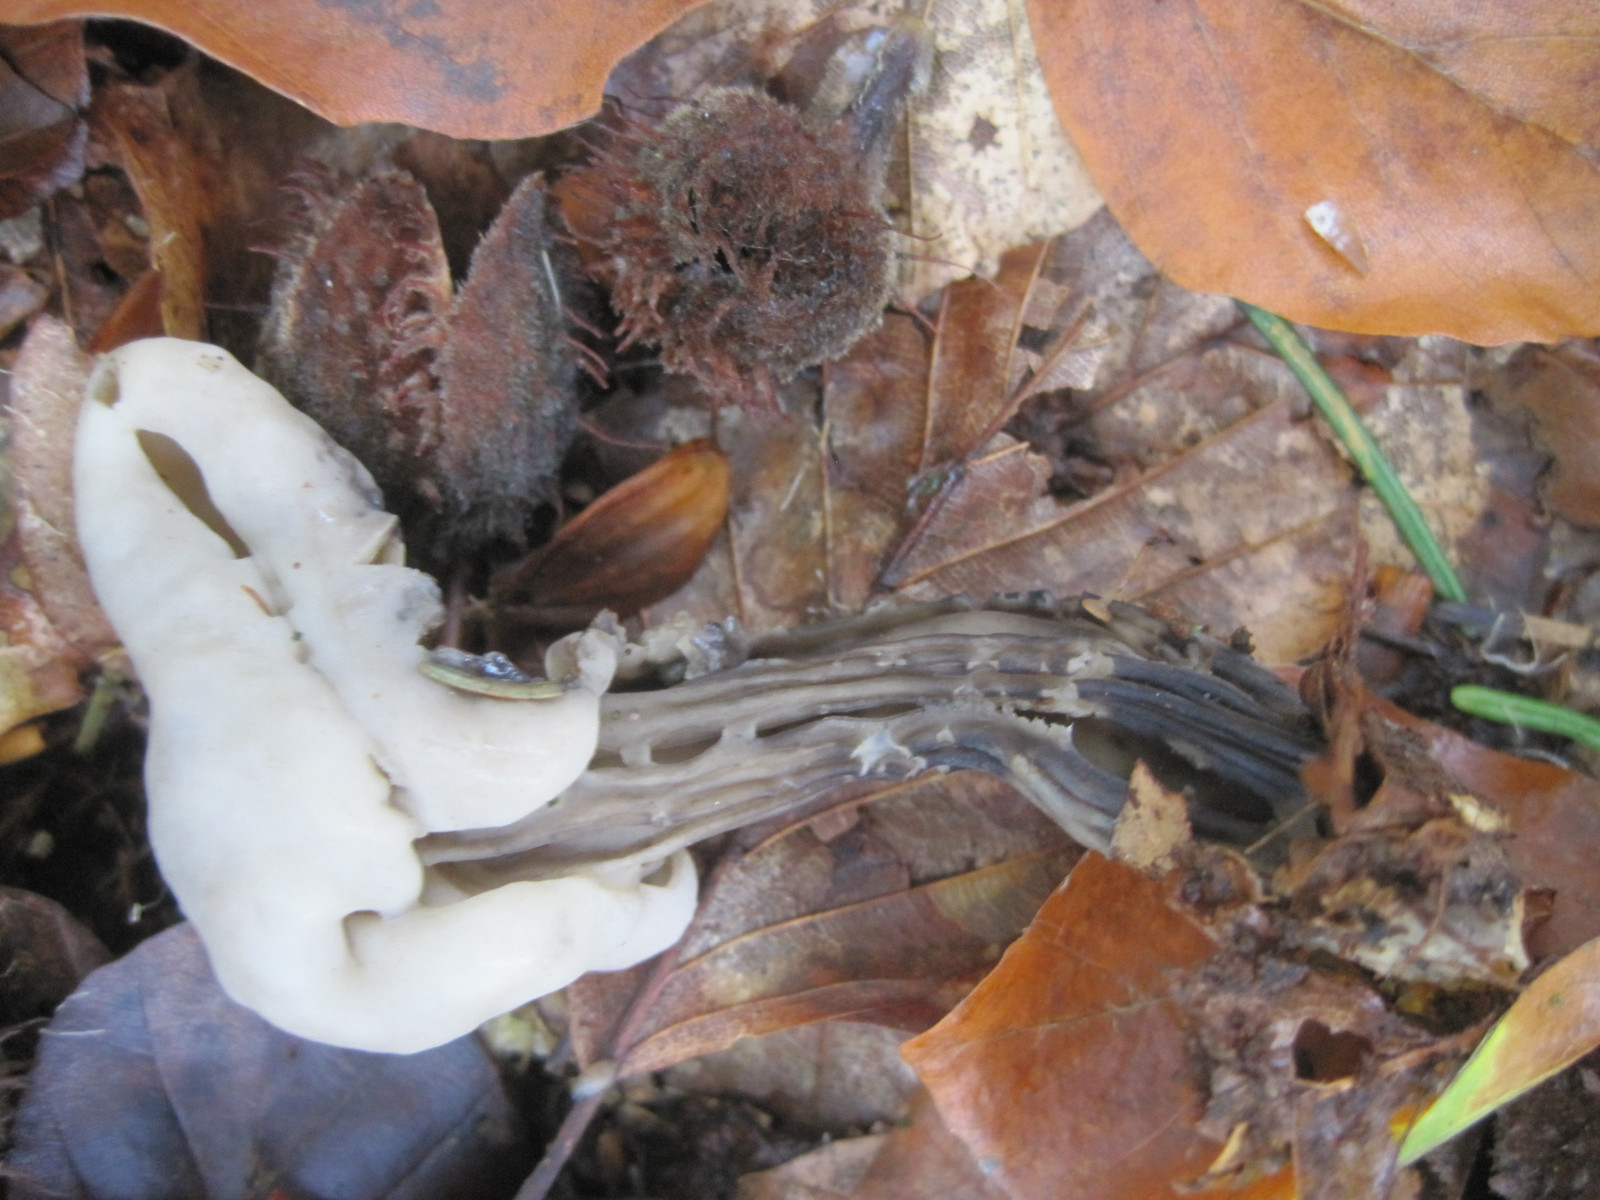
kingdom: Fungi
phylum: Ascomycota
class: Pezizomycetes
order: Pezizales
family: Helvellaceae
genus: Helvella
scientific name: Helvella lacunosa
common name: grubet foldhat
